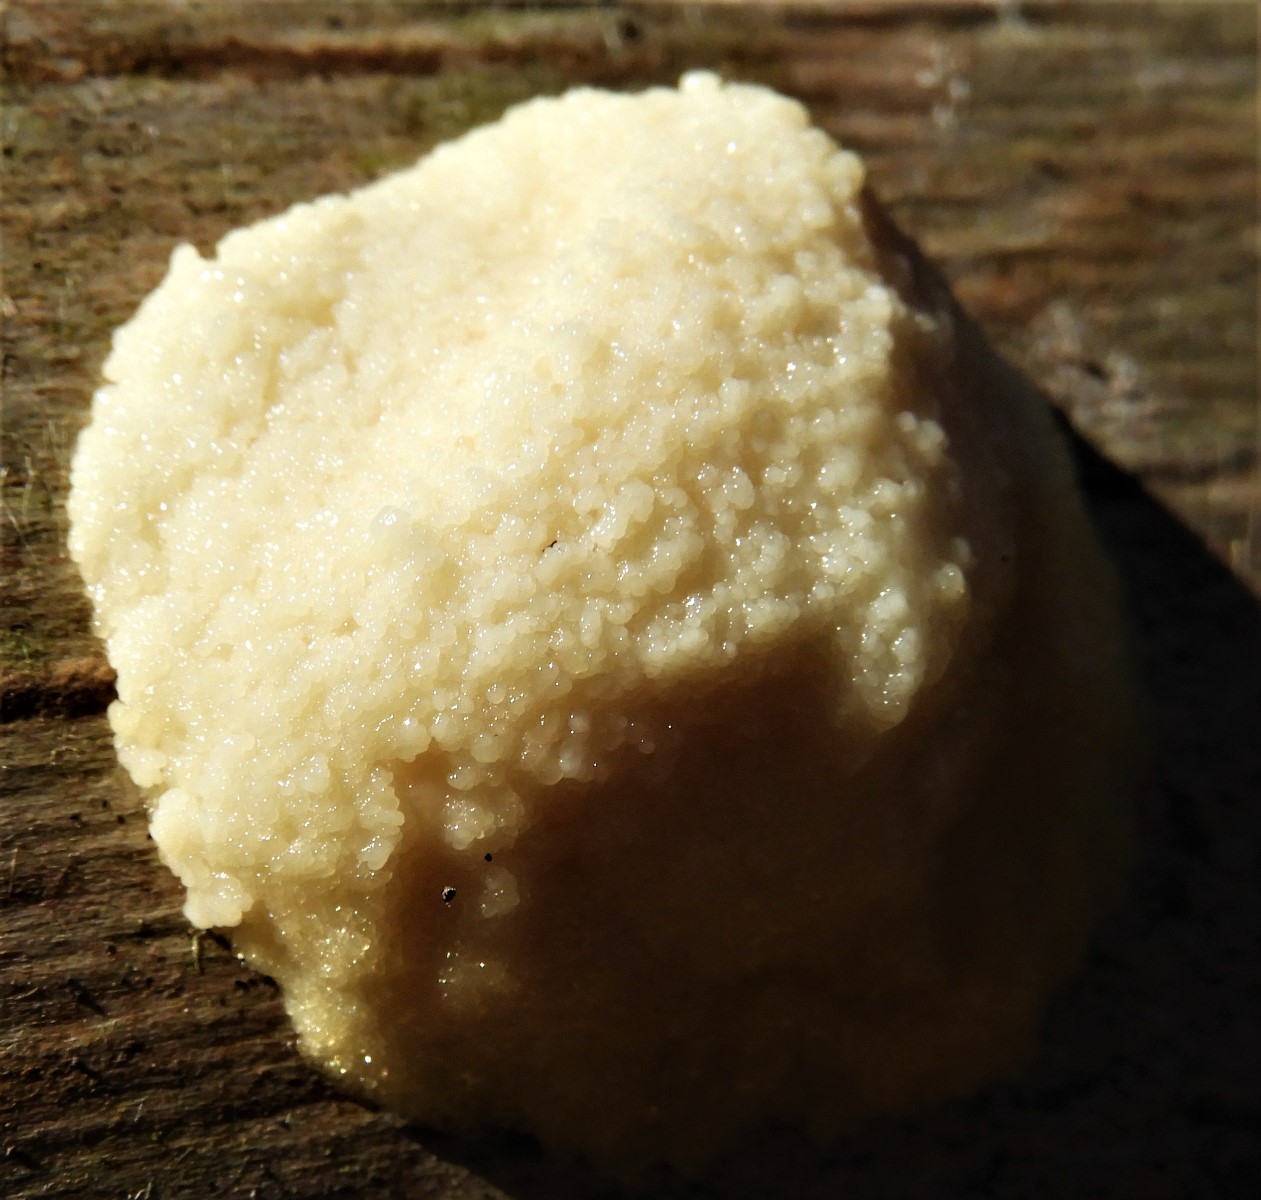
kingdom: Protozoa
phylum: Mycetozoa
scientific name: Mycetozoa
